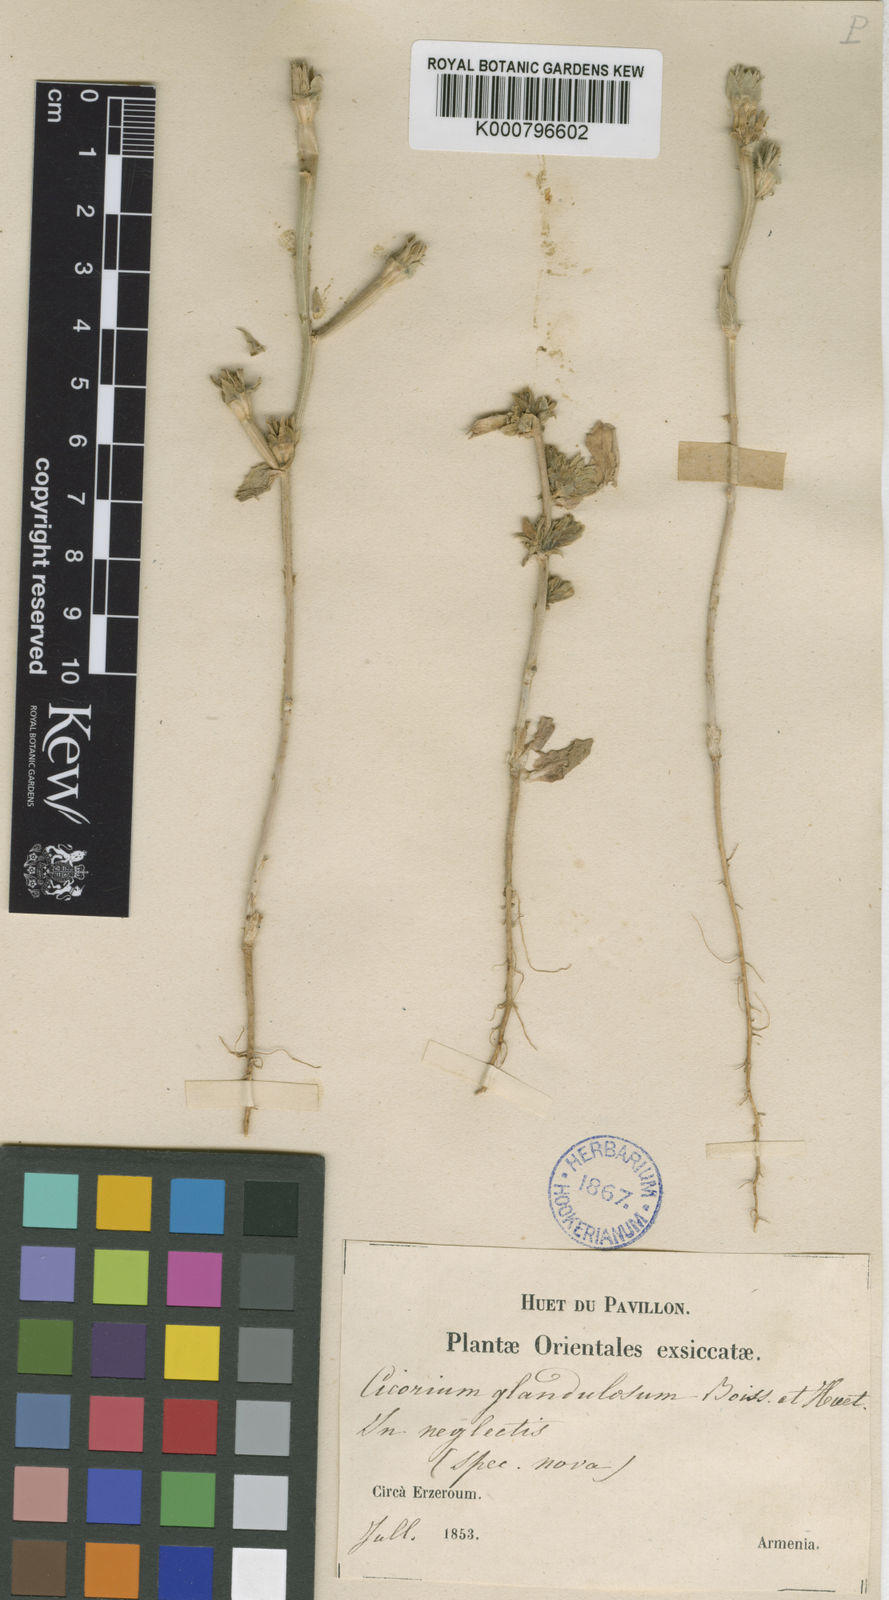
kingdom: Plantae
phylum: Tracheophyta
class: Magnoliopsida
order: Asterales
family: Asteraceae
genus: Cichorium
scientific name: Cichorium glandulosum
